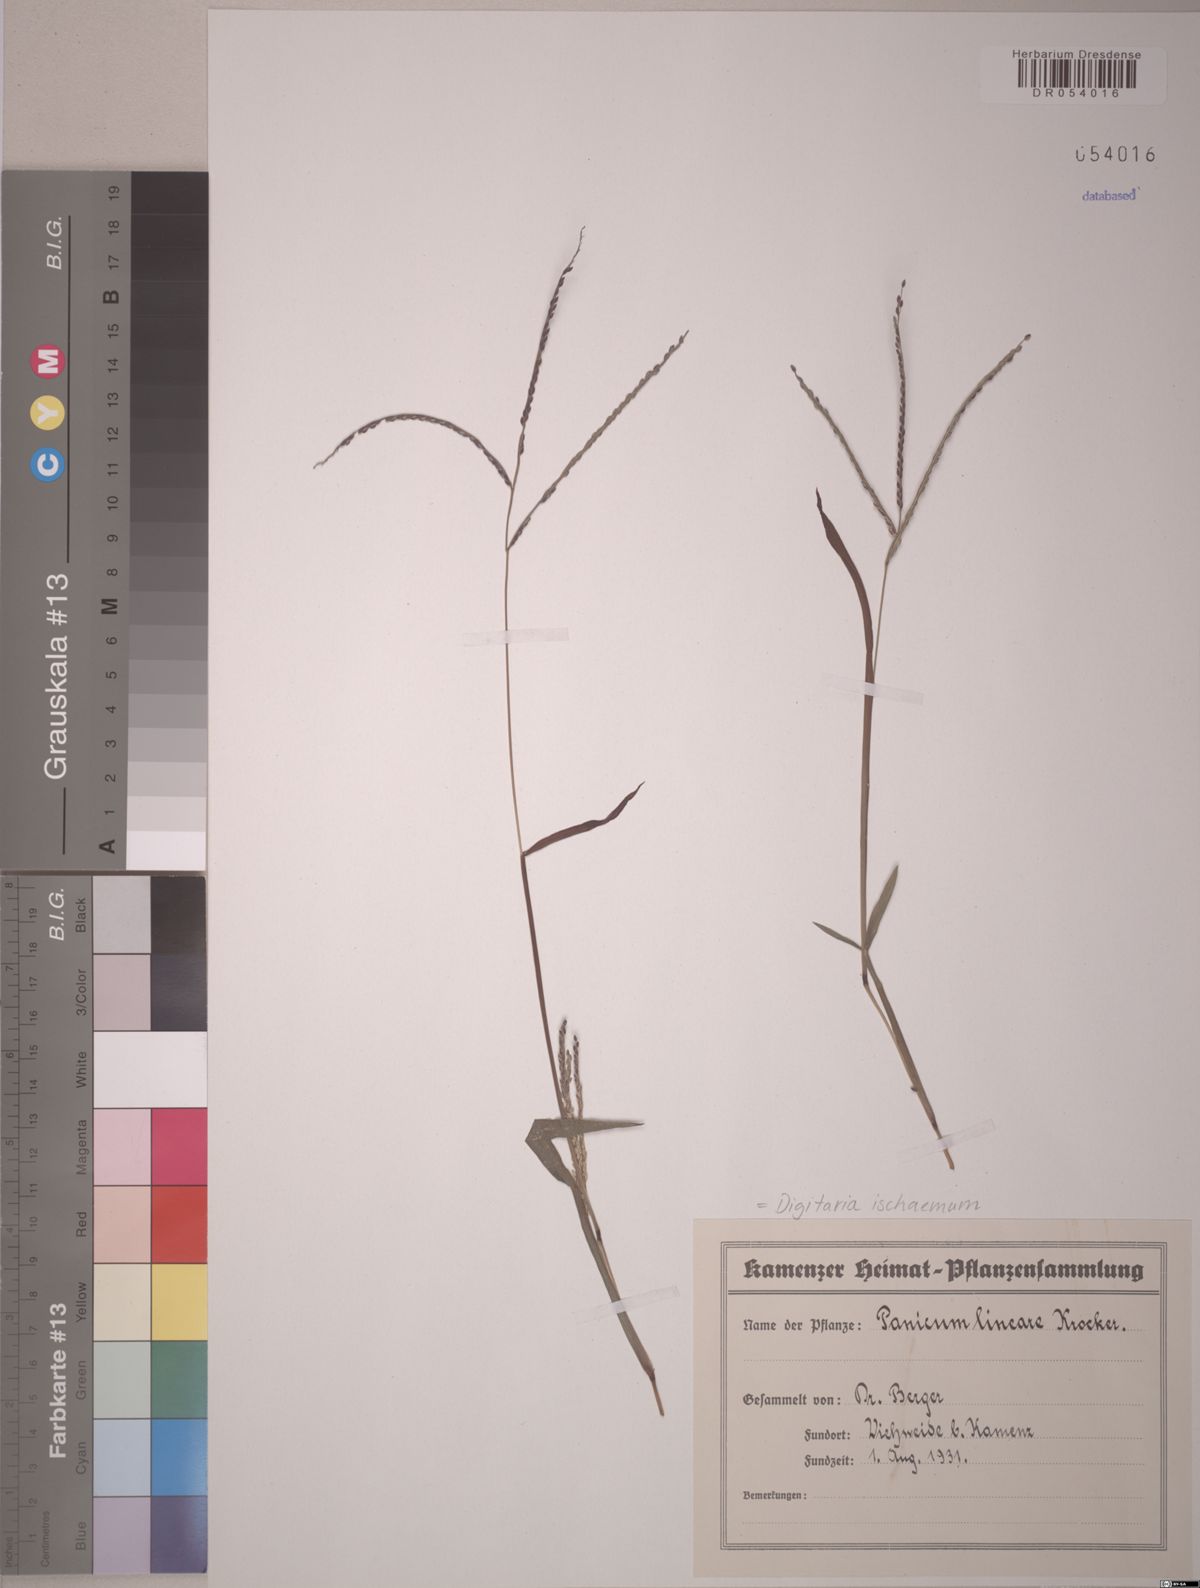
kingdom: Plantae
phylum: Tracheophyta
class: Liliopsida
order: Poales
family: Poaceae
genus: Digitaria
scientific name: Digitaria ischaemum
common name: Smooth crabgrass
